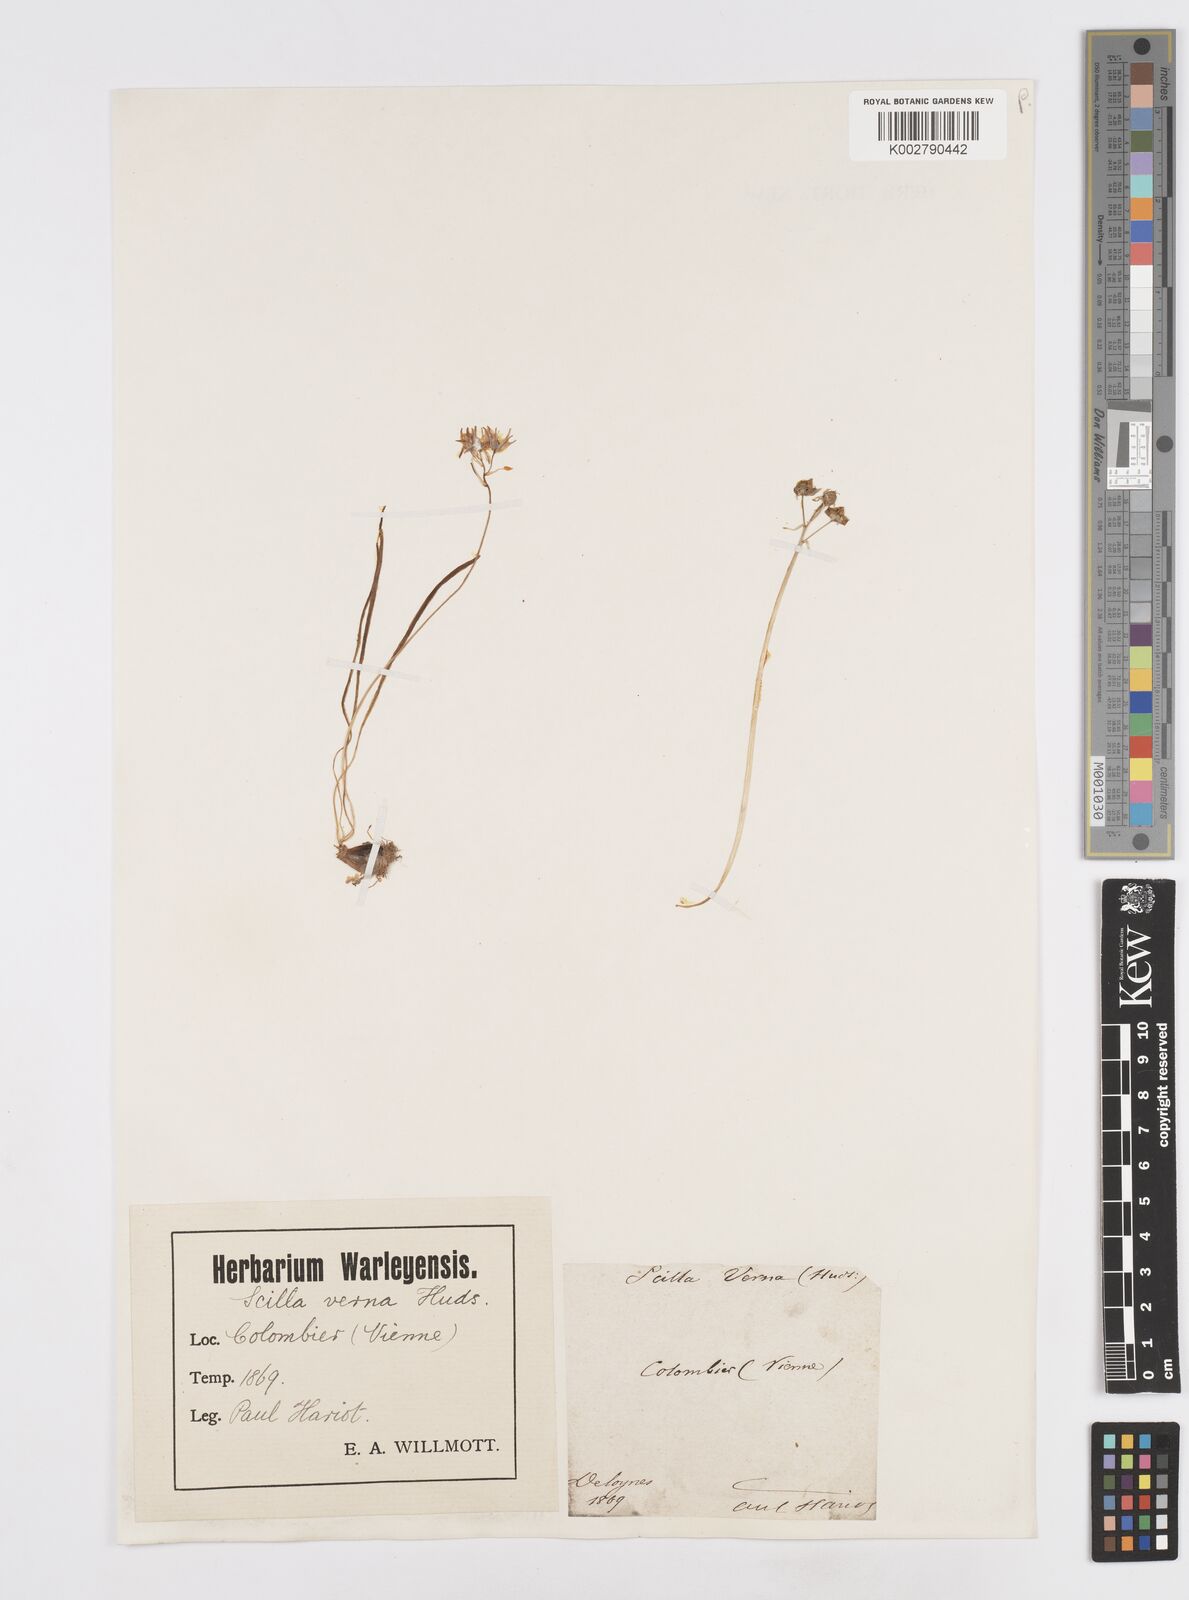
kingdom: Plantae
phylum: Tracheophyta
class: Liliopsida
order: Asparagales
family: Asparagaceae
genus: Scilla
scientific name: Scilla verna
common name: Spring squill
